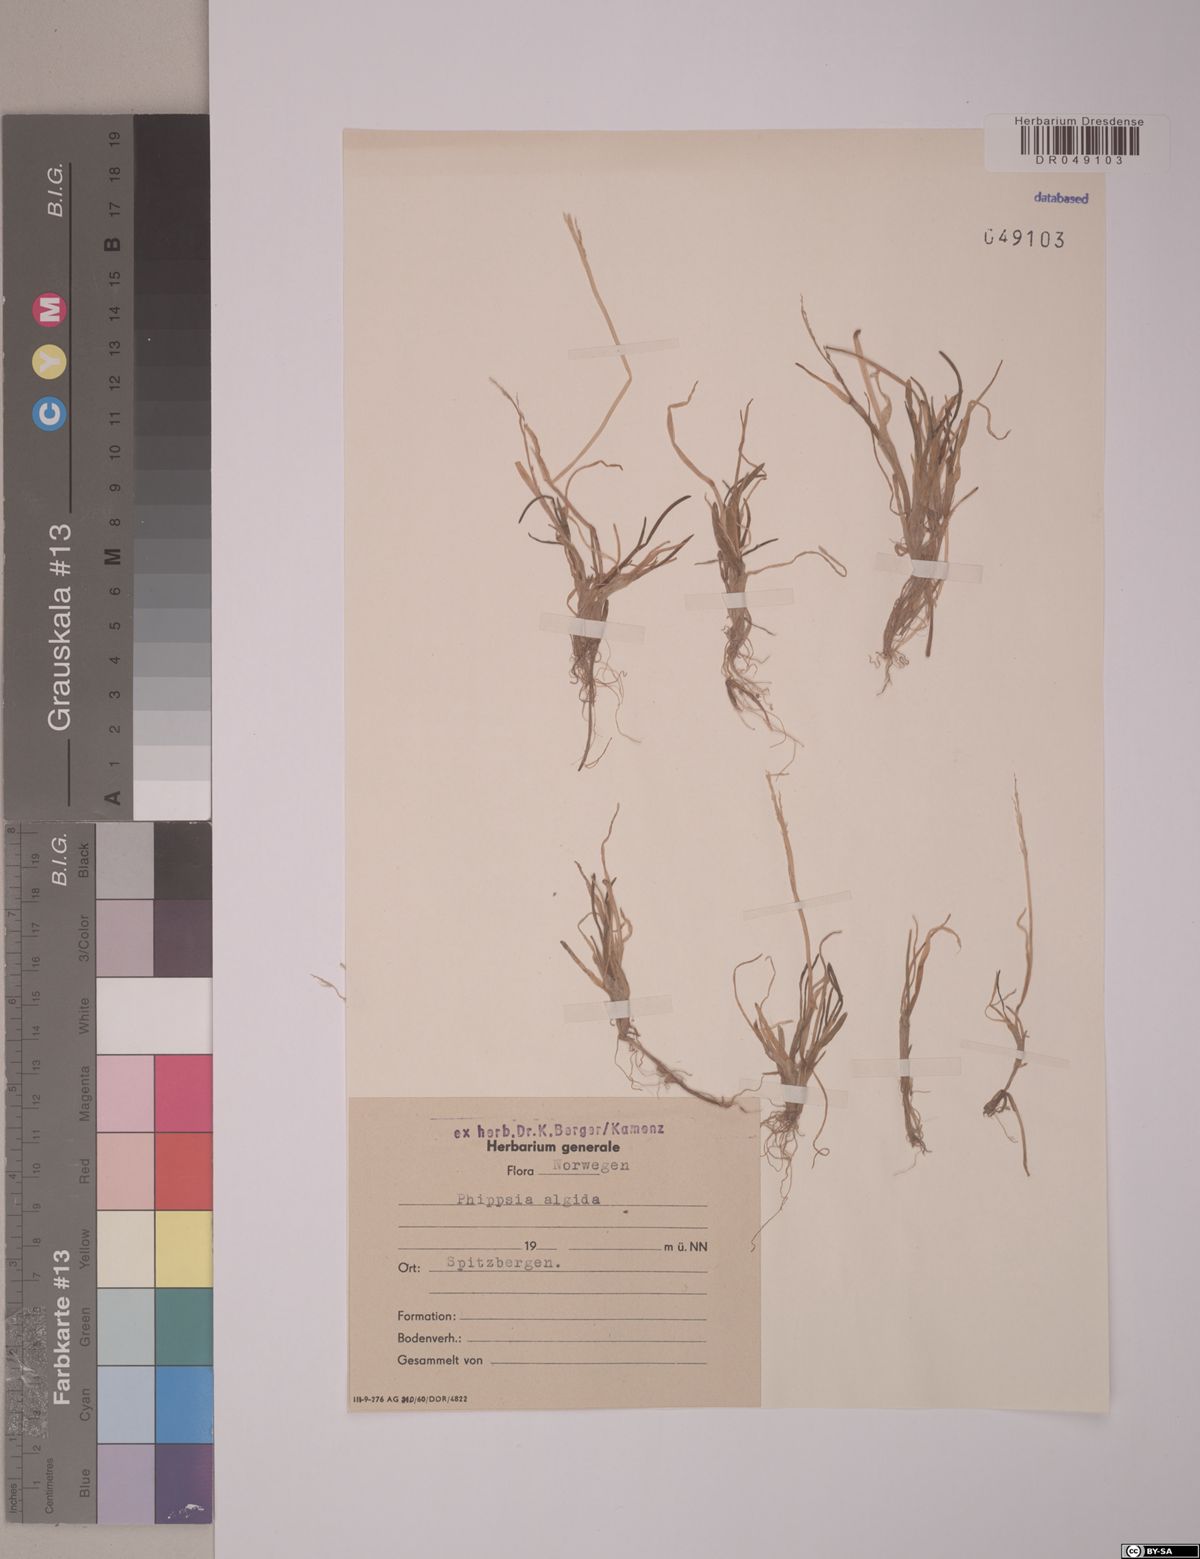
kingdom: Plantae
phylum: Tracheophyta
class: Liliopsida
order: Poales
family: Poaceae
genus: Phippsia
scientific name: Phippsia algida
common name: Ice grass
